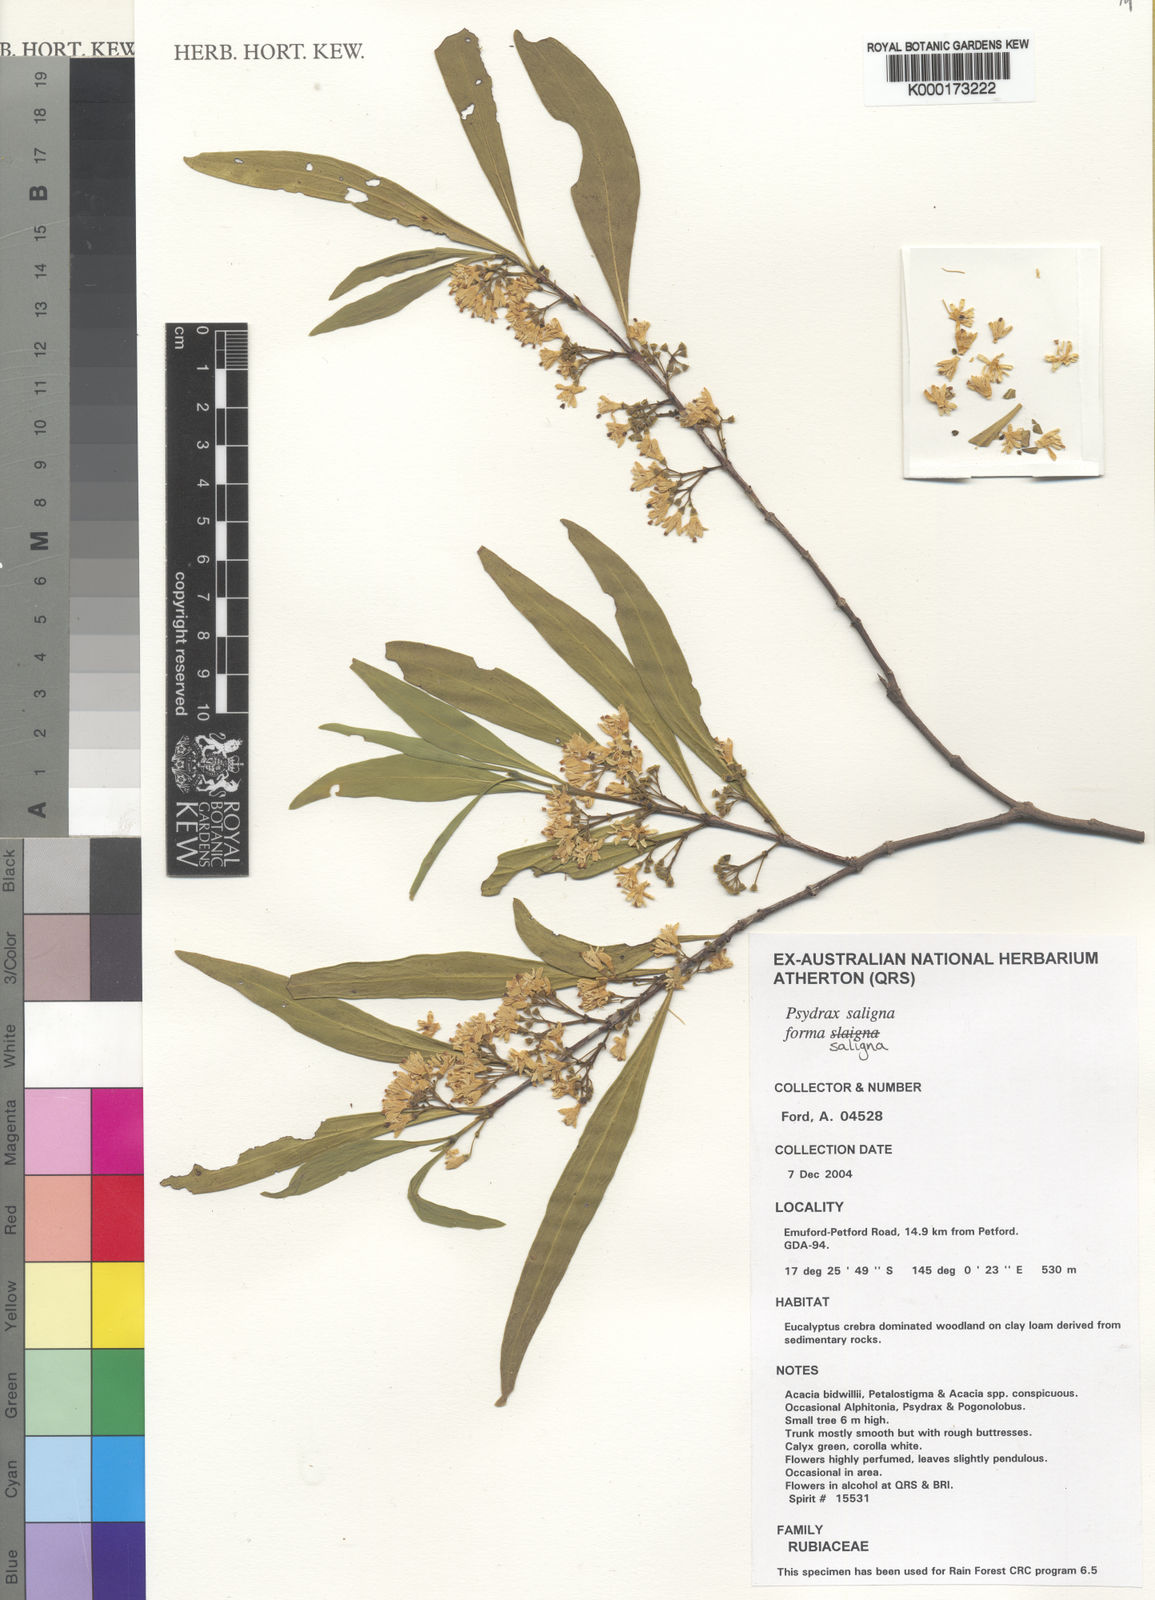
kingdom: Plantae
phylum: Tracheophyta
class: Magnoliopsida
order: Gentianales
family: Rubiaceae
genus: Psydrax
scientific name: Psydrax salignus
